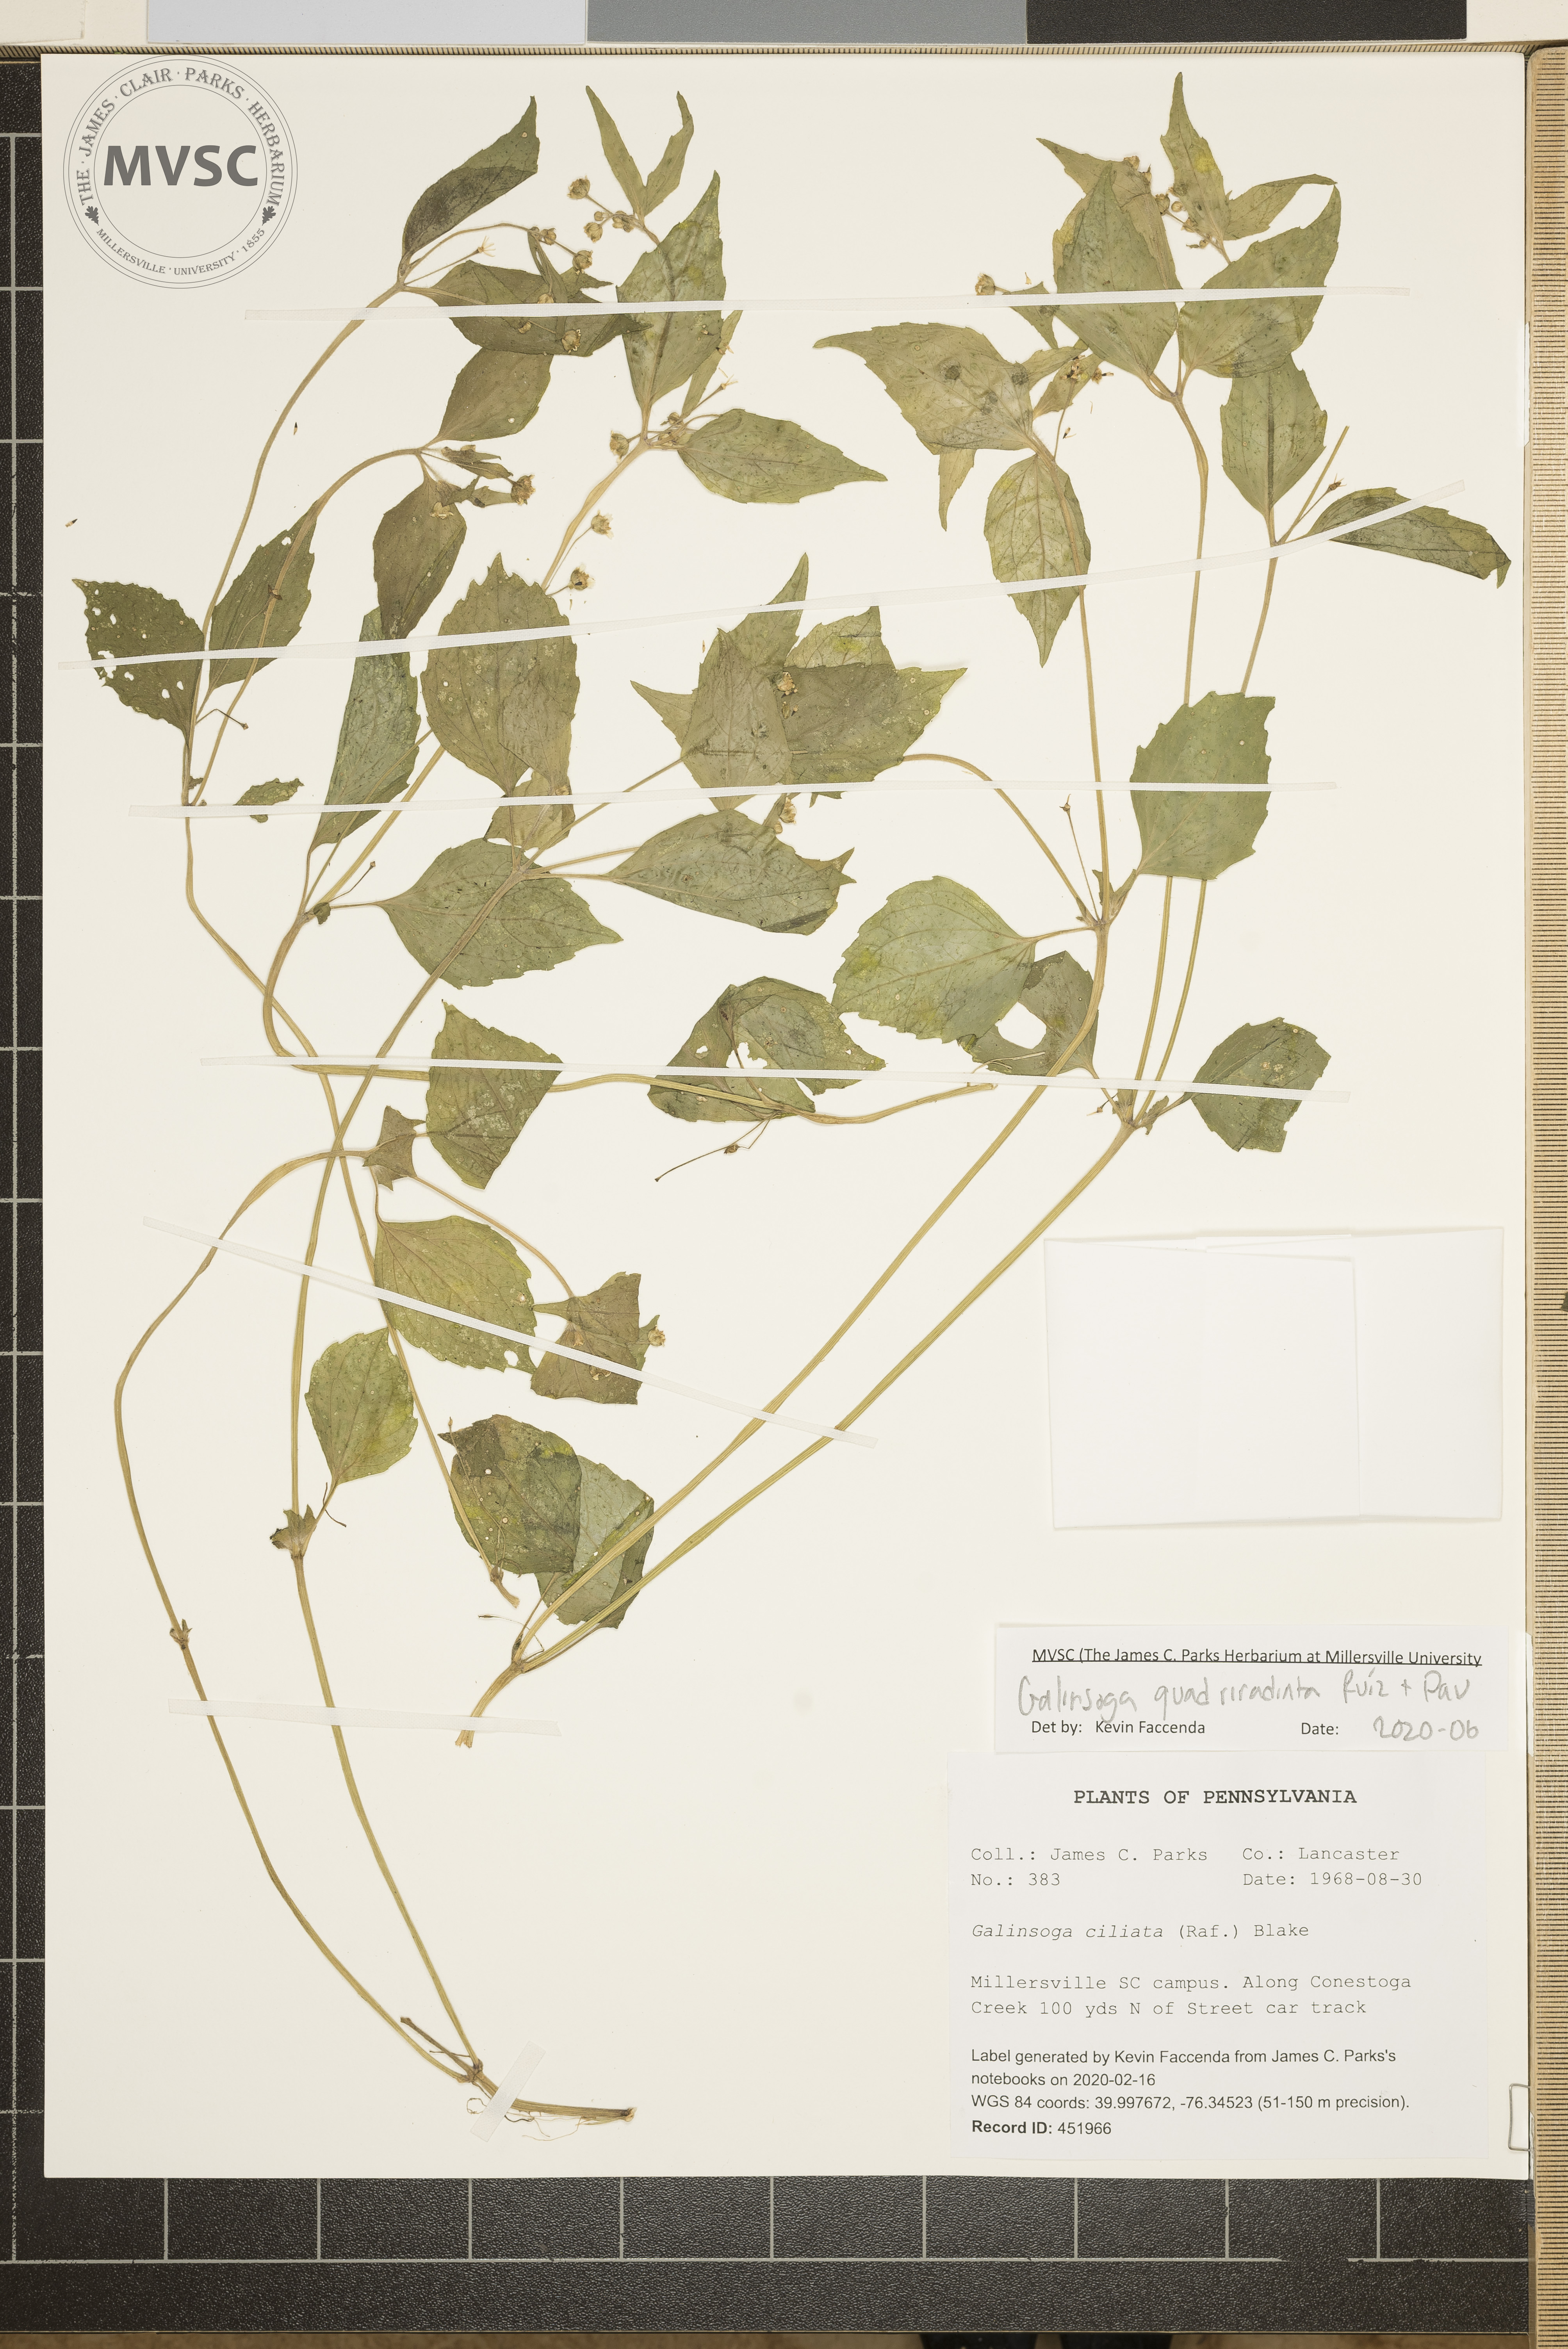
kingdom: Plantae
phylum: Tracheophyta
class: Magnoliopsida
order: Asterales
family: Asteraceae
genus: Galinsoga
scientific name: Galinsoga quadriradiata
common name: Shaggy soldier
